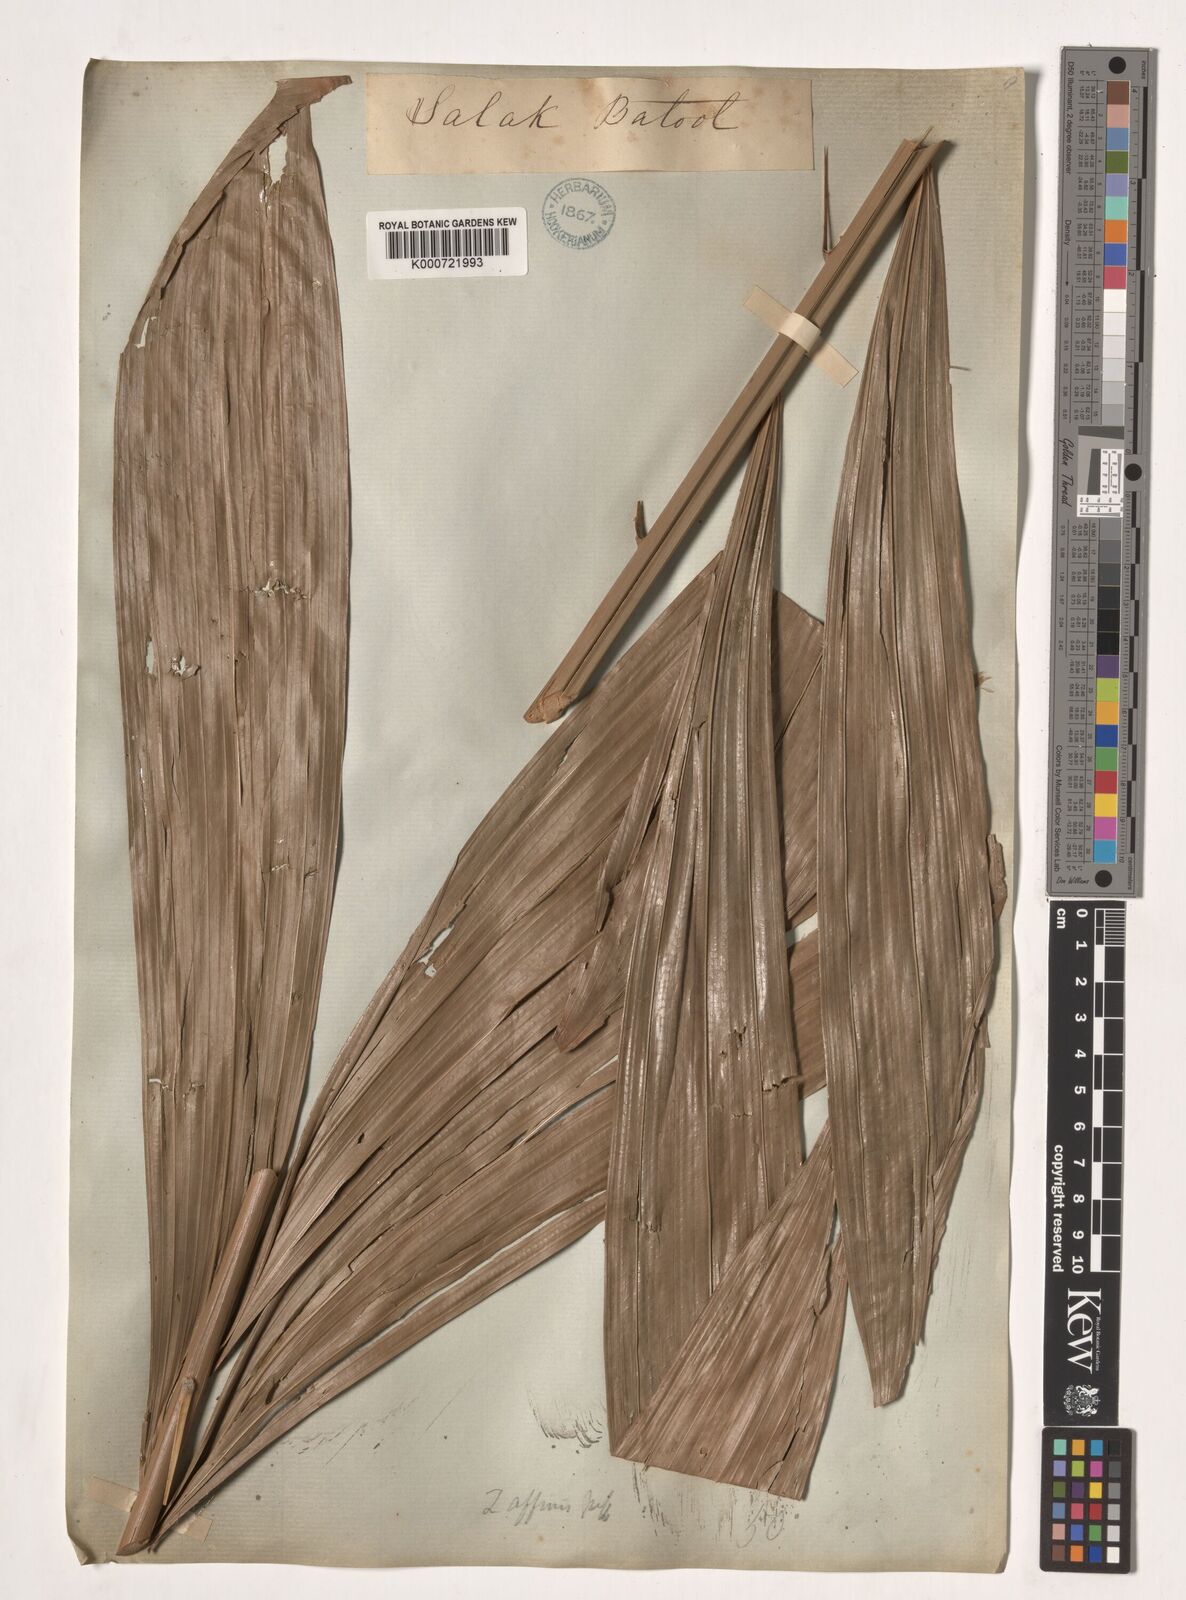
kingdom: Plantae
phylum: Tracheophyta
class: Liliopsida
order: Arecales
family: Arecaceae
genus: Salacca
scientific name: Salacca affinis
